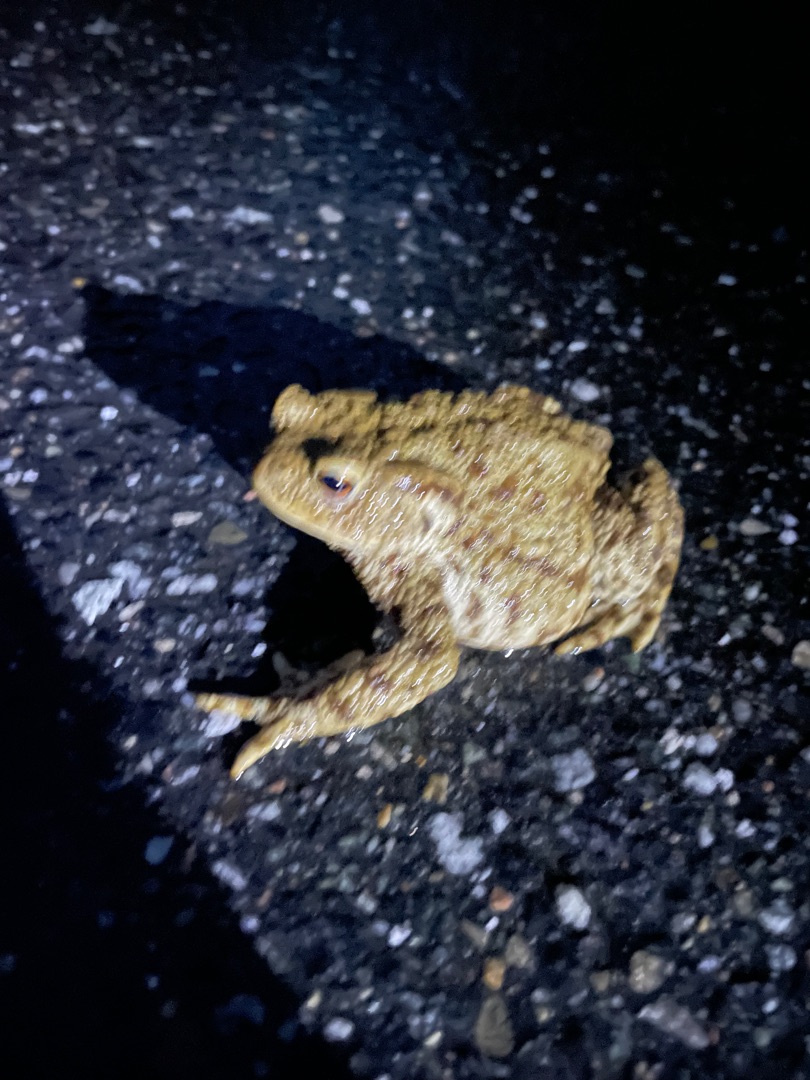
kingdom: Animalia
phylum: Chordata
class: Amphibia
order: Anura
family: Bufonidae
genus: Bufo
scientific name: Bufo bufo
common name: Skrubtudse
